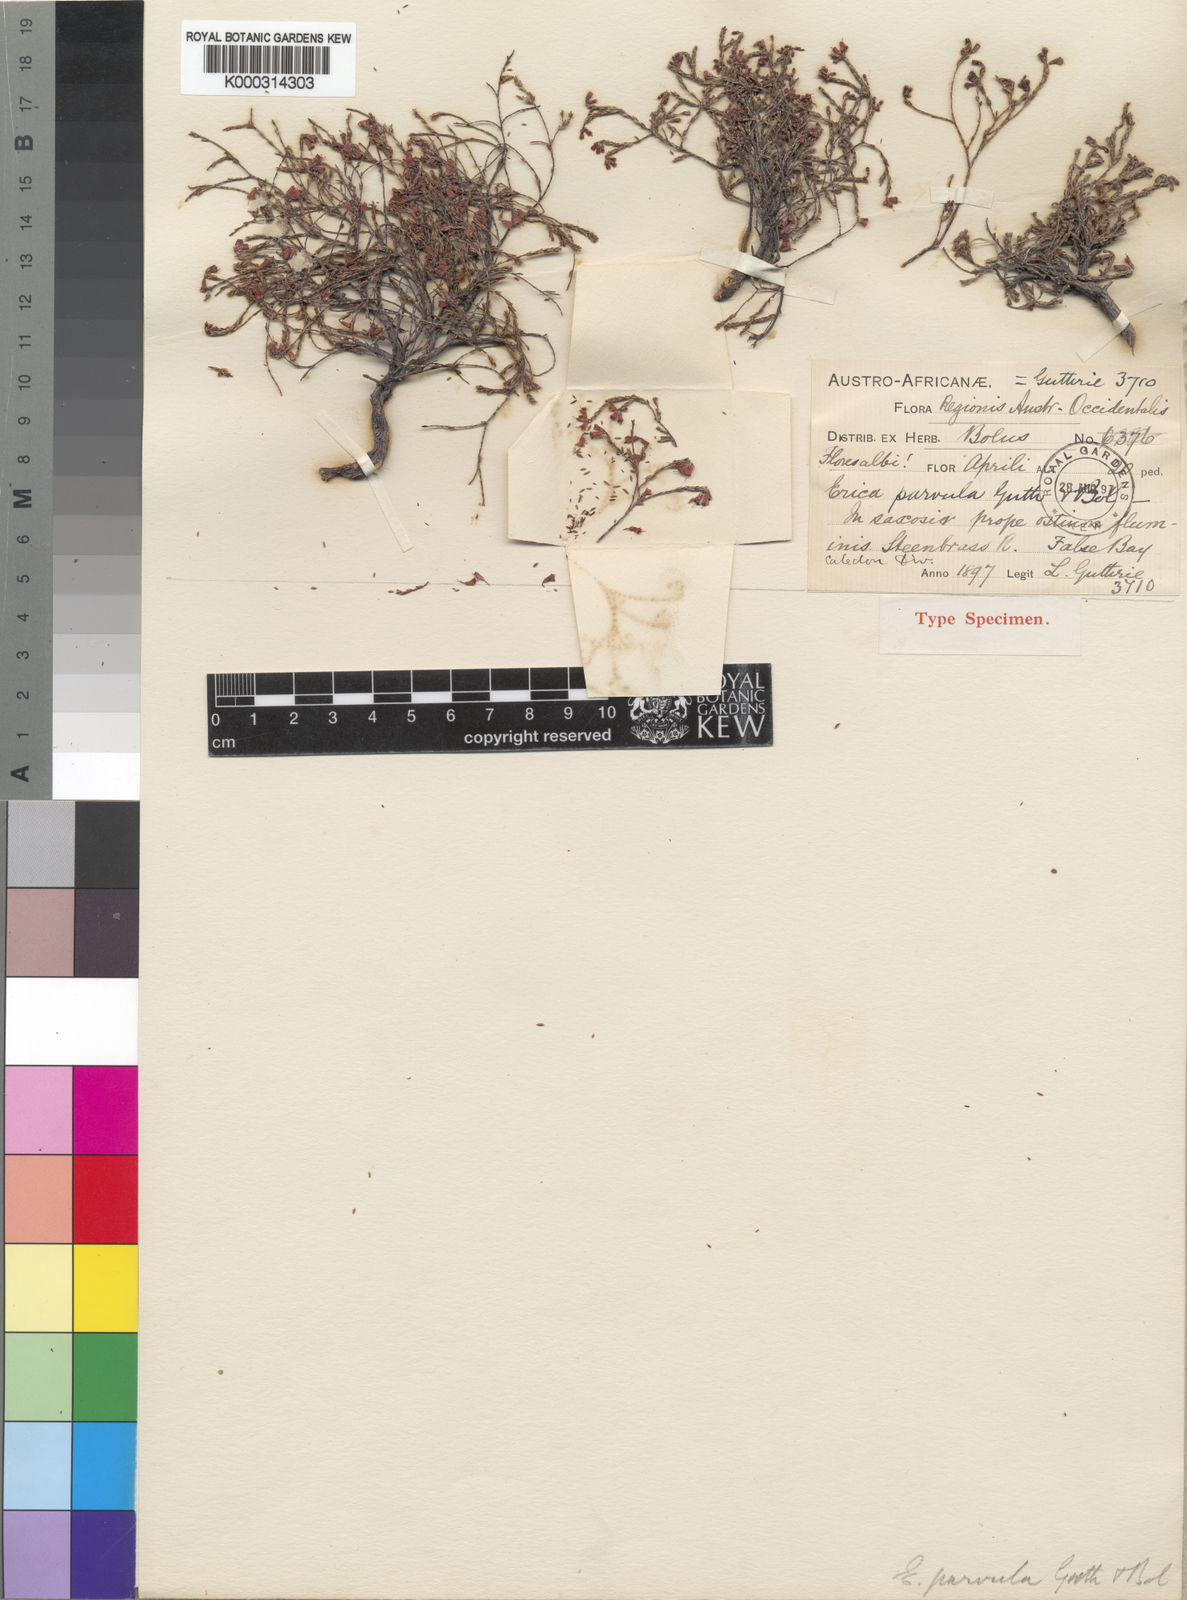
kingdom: Plantae
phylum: Tracheophyta
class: Magnoliopsida
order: Ericales
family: Ericaceae
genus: Erica
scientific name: Erica equisetifolia
